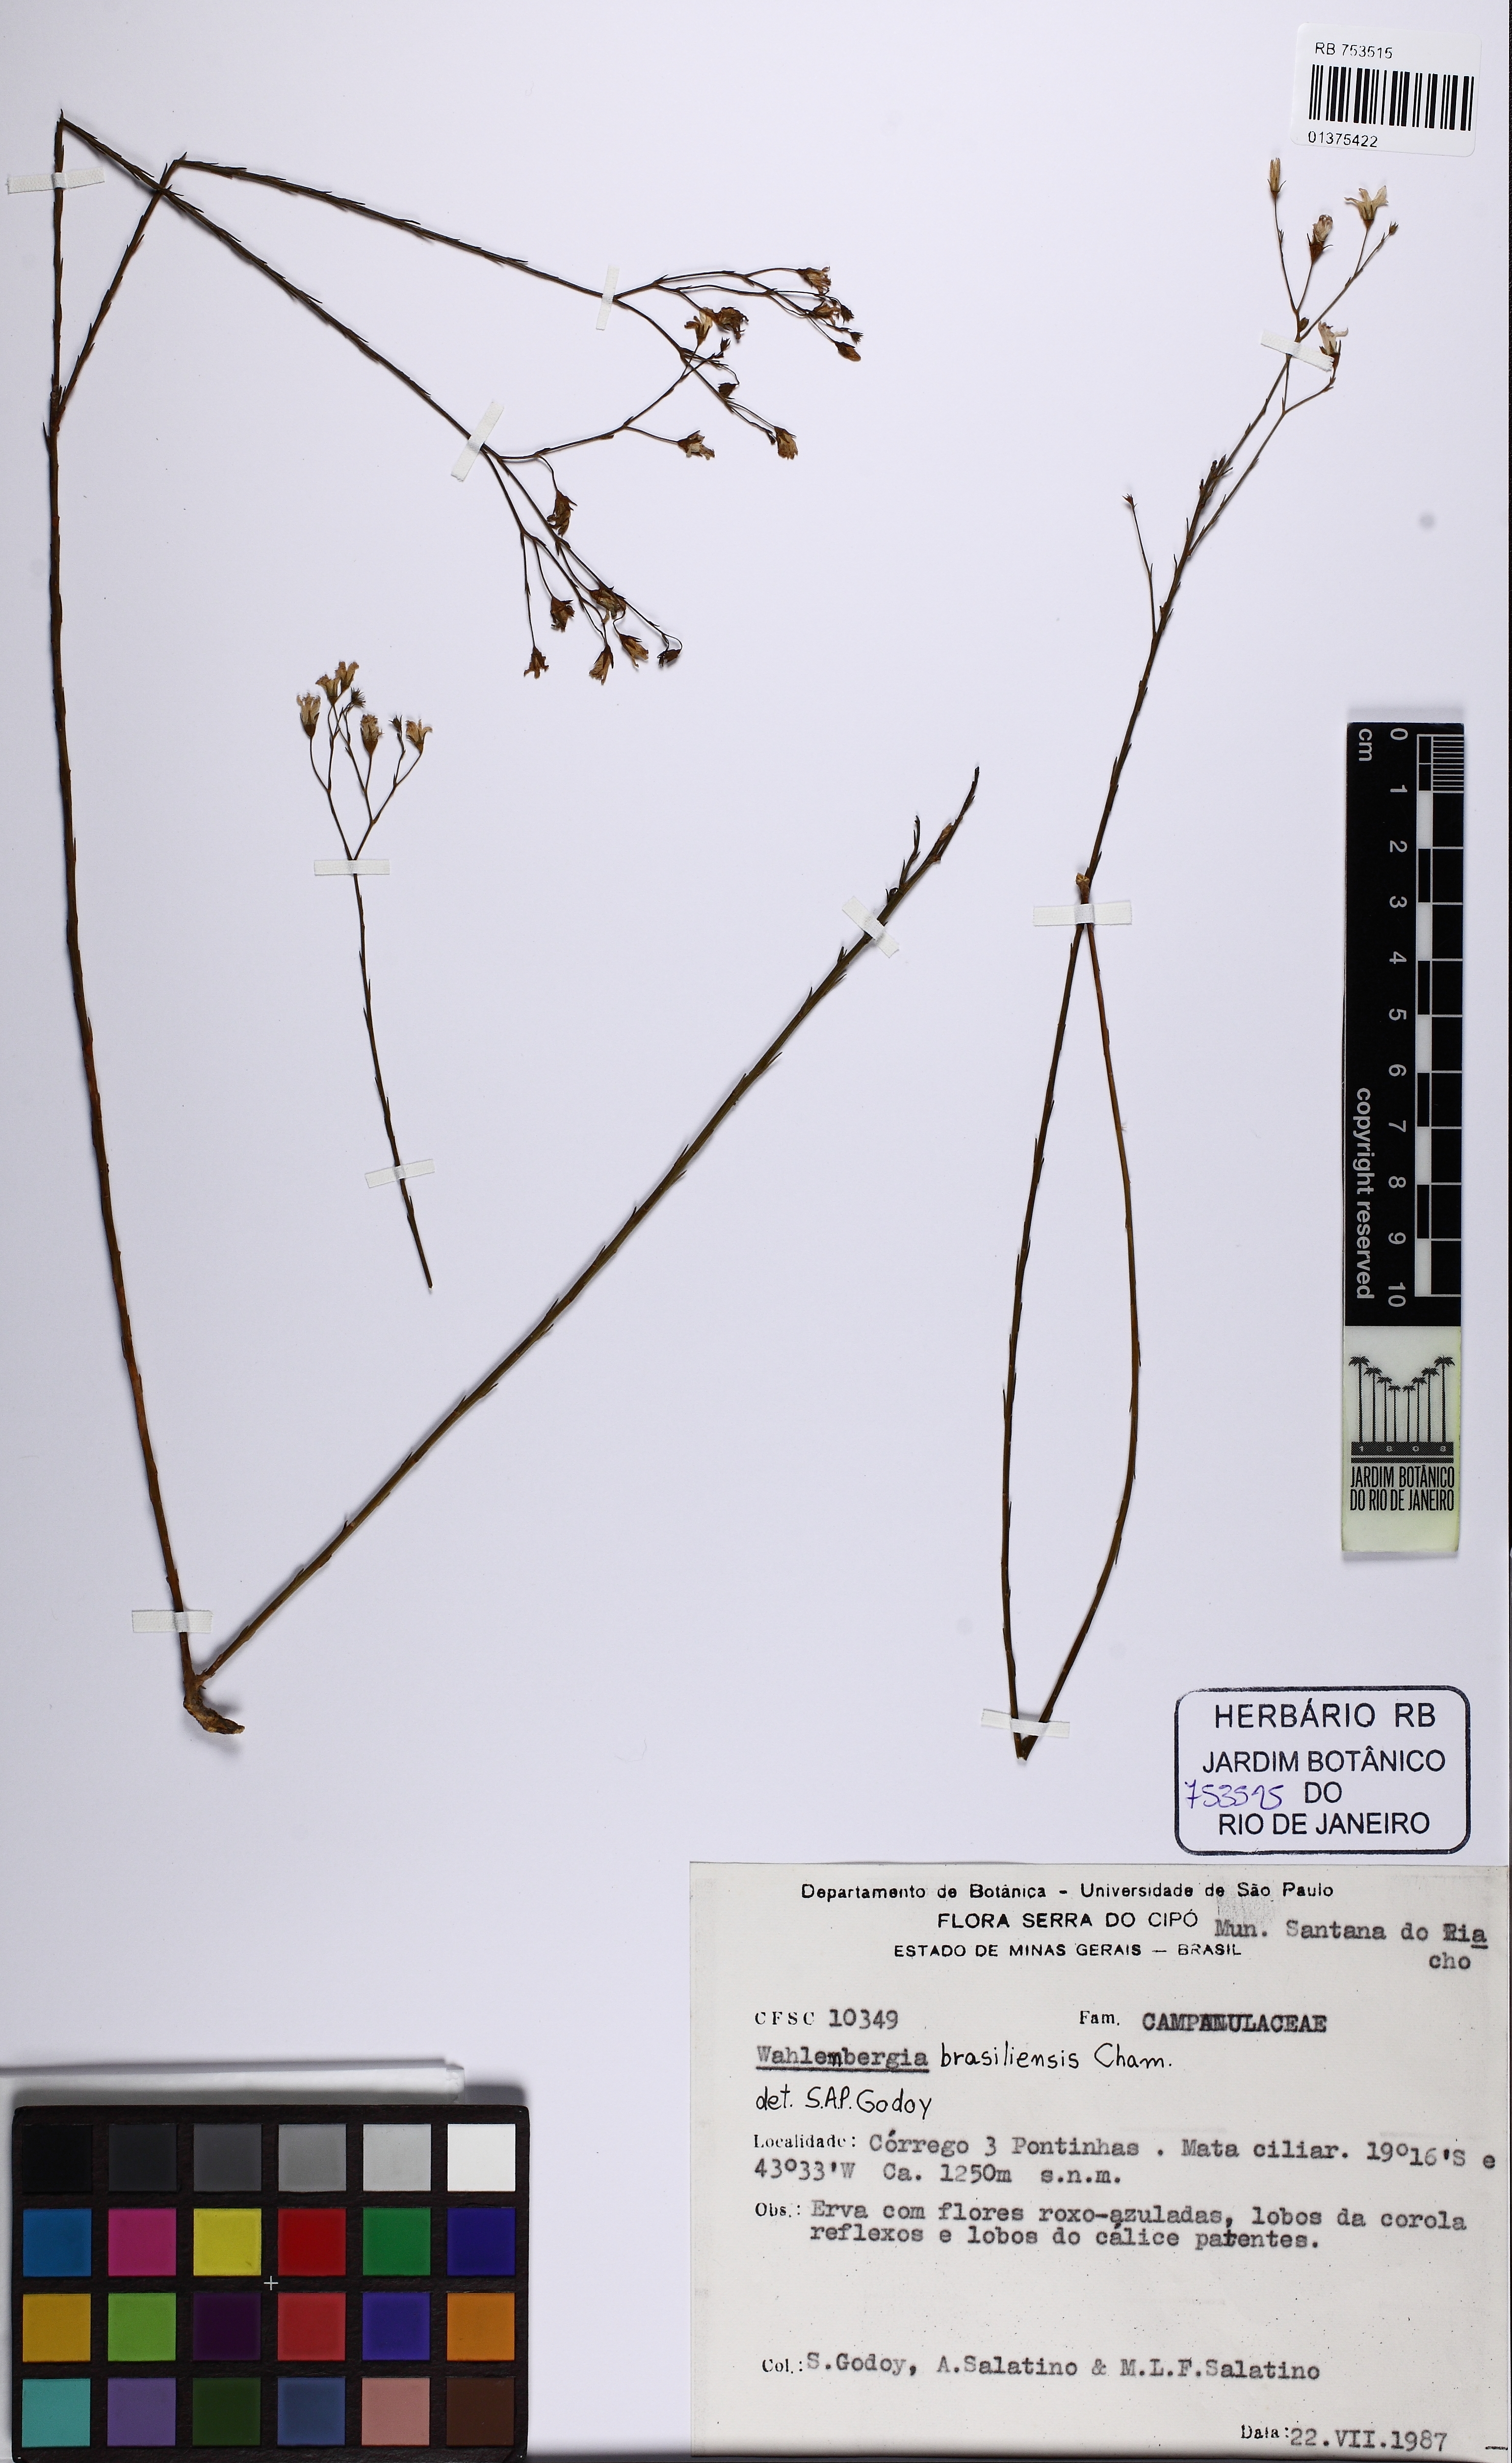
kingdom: Plantae
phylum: Tracheophyta
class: Magnoliopsida
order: Asterales
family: Campanulaceae
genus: Wahlenbergia
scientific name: Wahlenbergia brasiliensis
